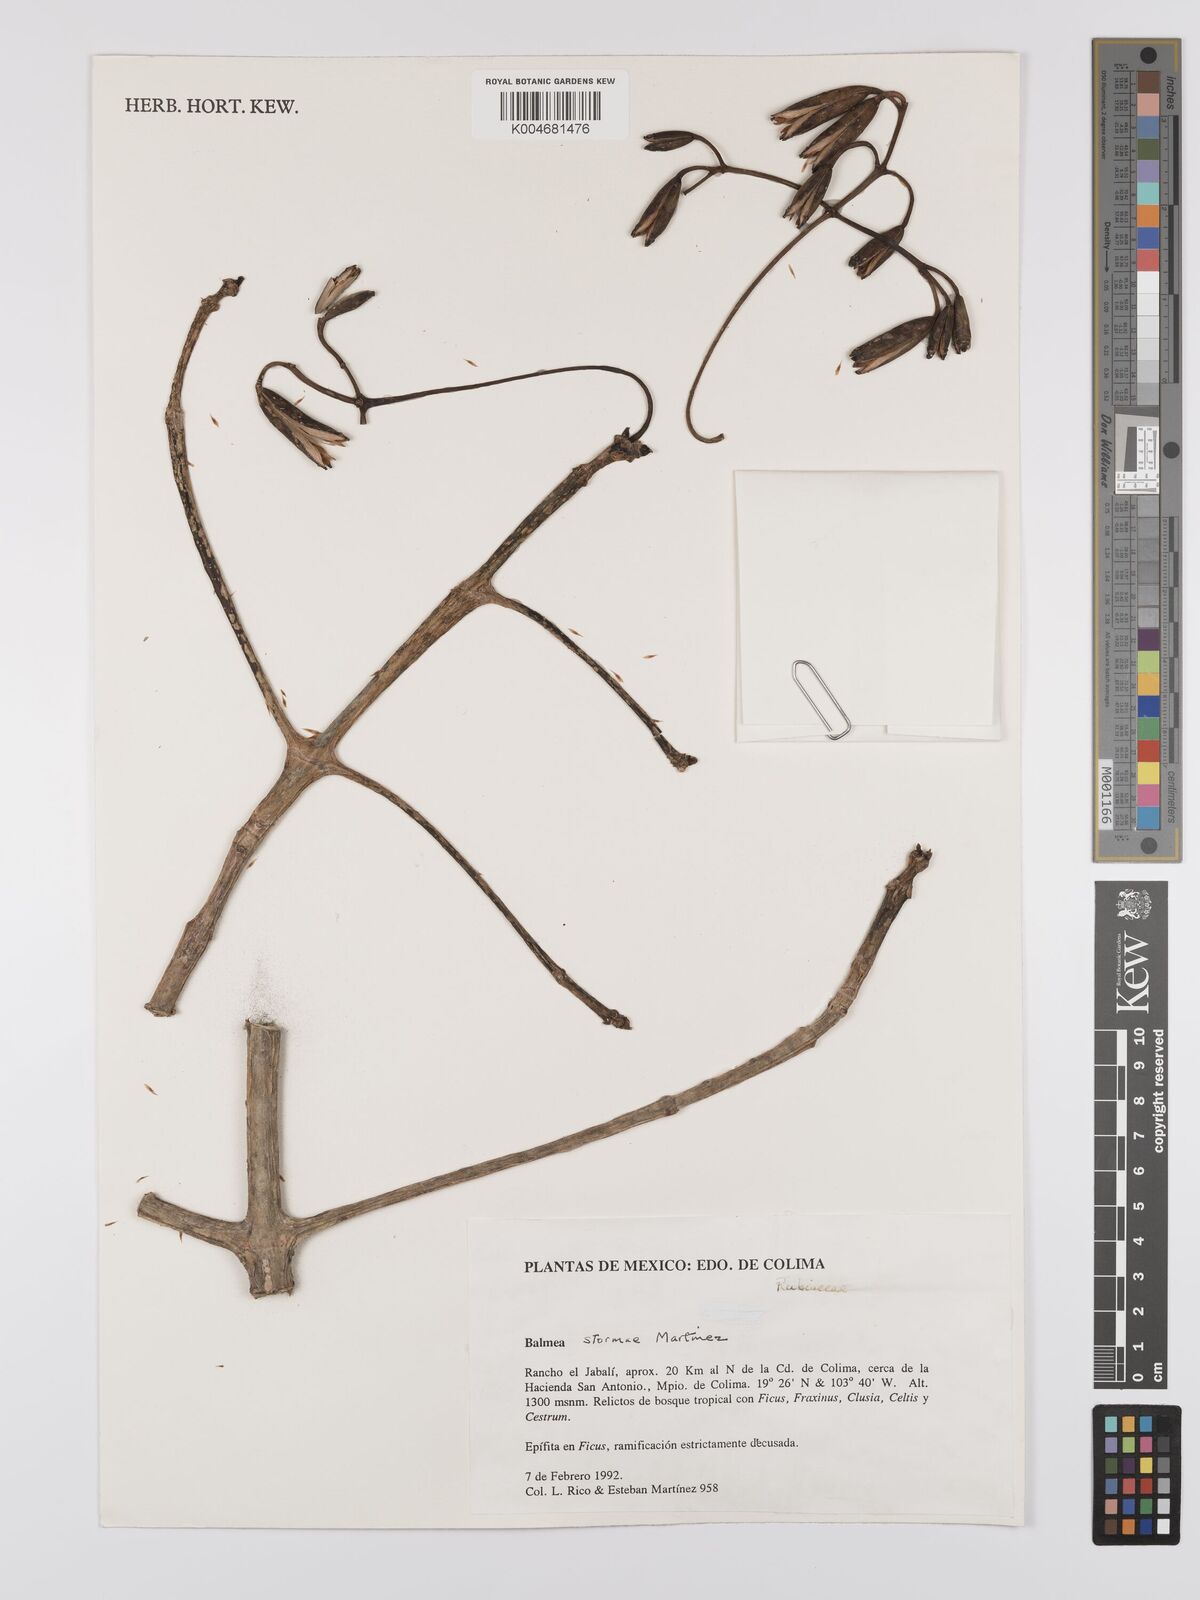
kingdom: Plantae
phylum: Tracheophyta
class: Magnoliopsida
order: Gentianales
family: Rubiaceae
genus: Balmea
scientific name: Balmea stormiae
